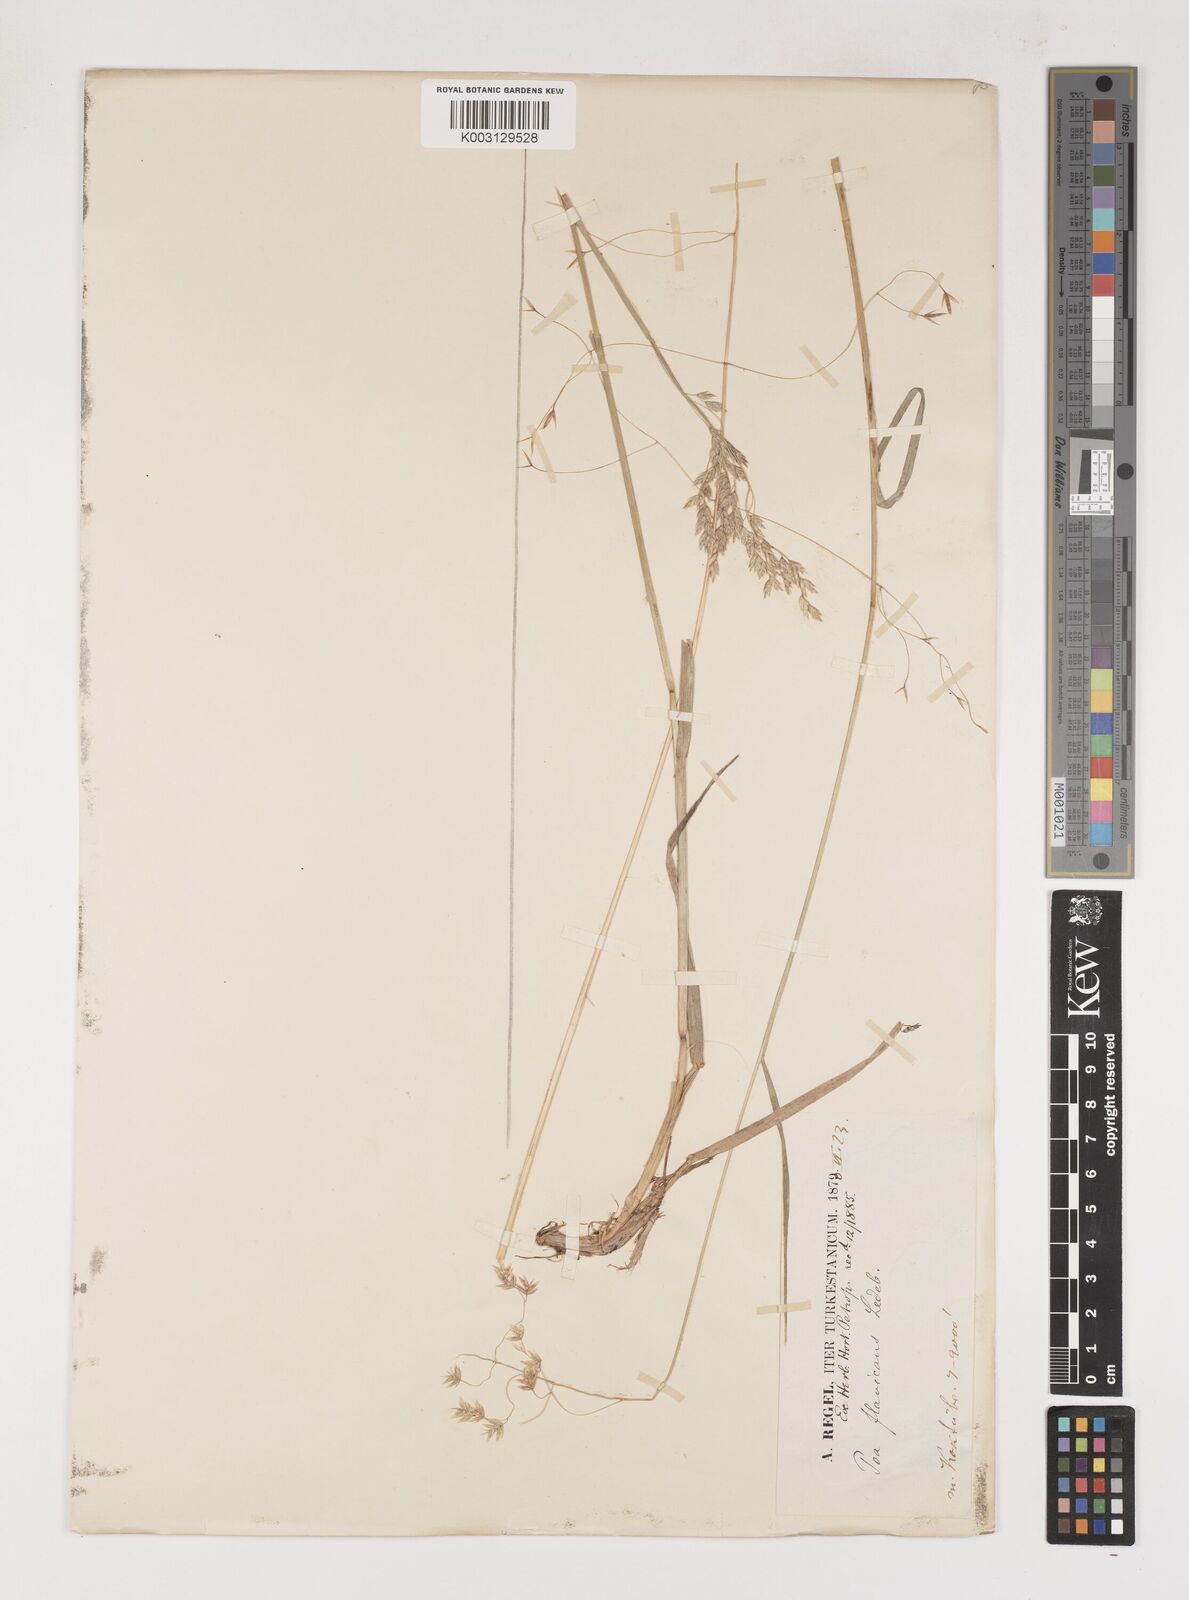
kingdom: Plantae
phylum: Tracheophyta
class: Liliopsida
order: Poales
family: Poaceae
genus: Poa
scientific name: Poa
